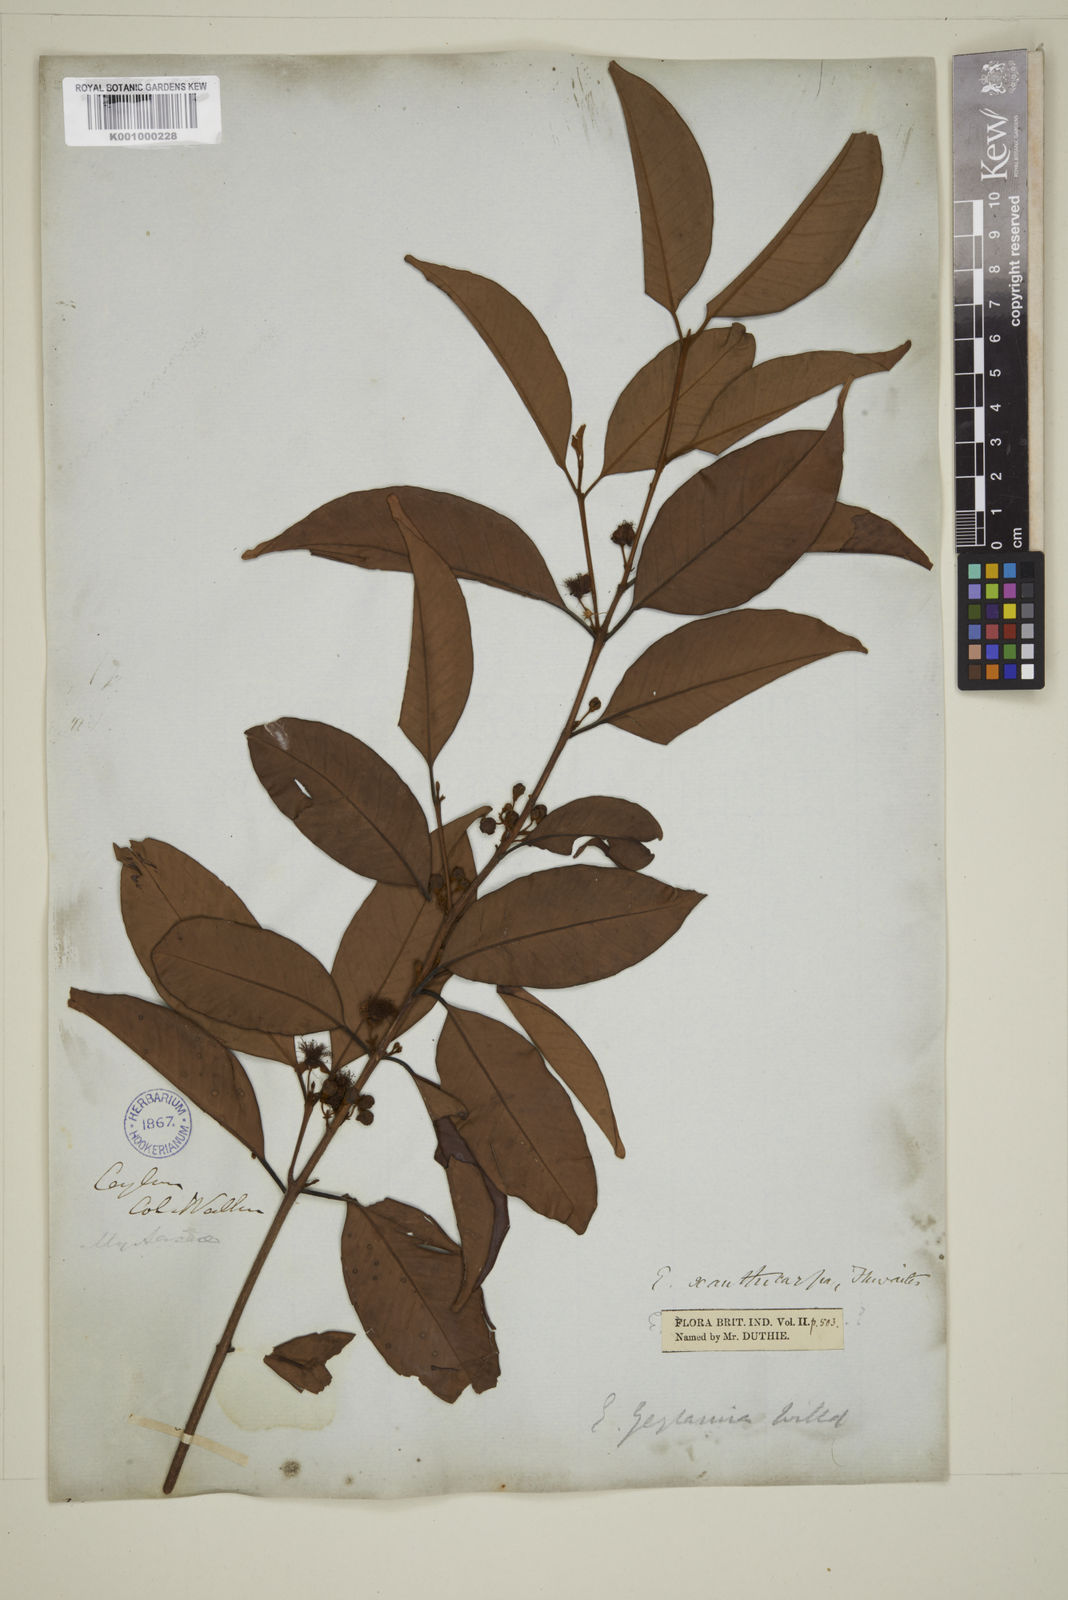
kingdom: Plantae
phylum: Tracheophyta
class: Magnoliopsida
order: Myrtales
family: Myrtaceae
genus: Campomanesia
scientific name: Campomanesia xanthocarpa
